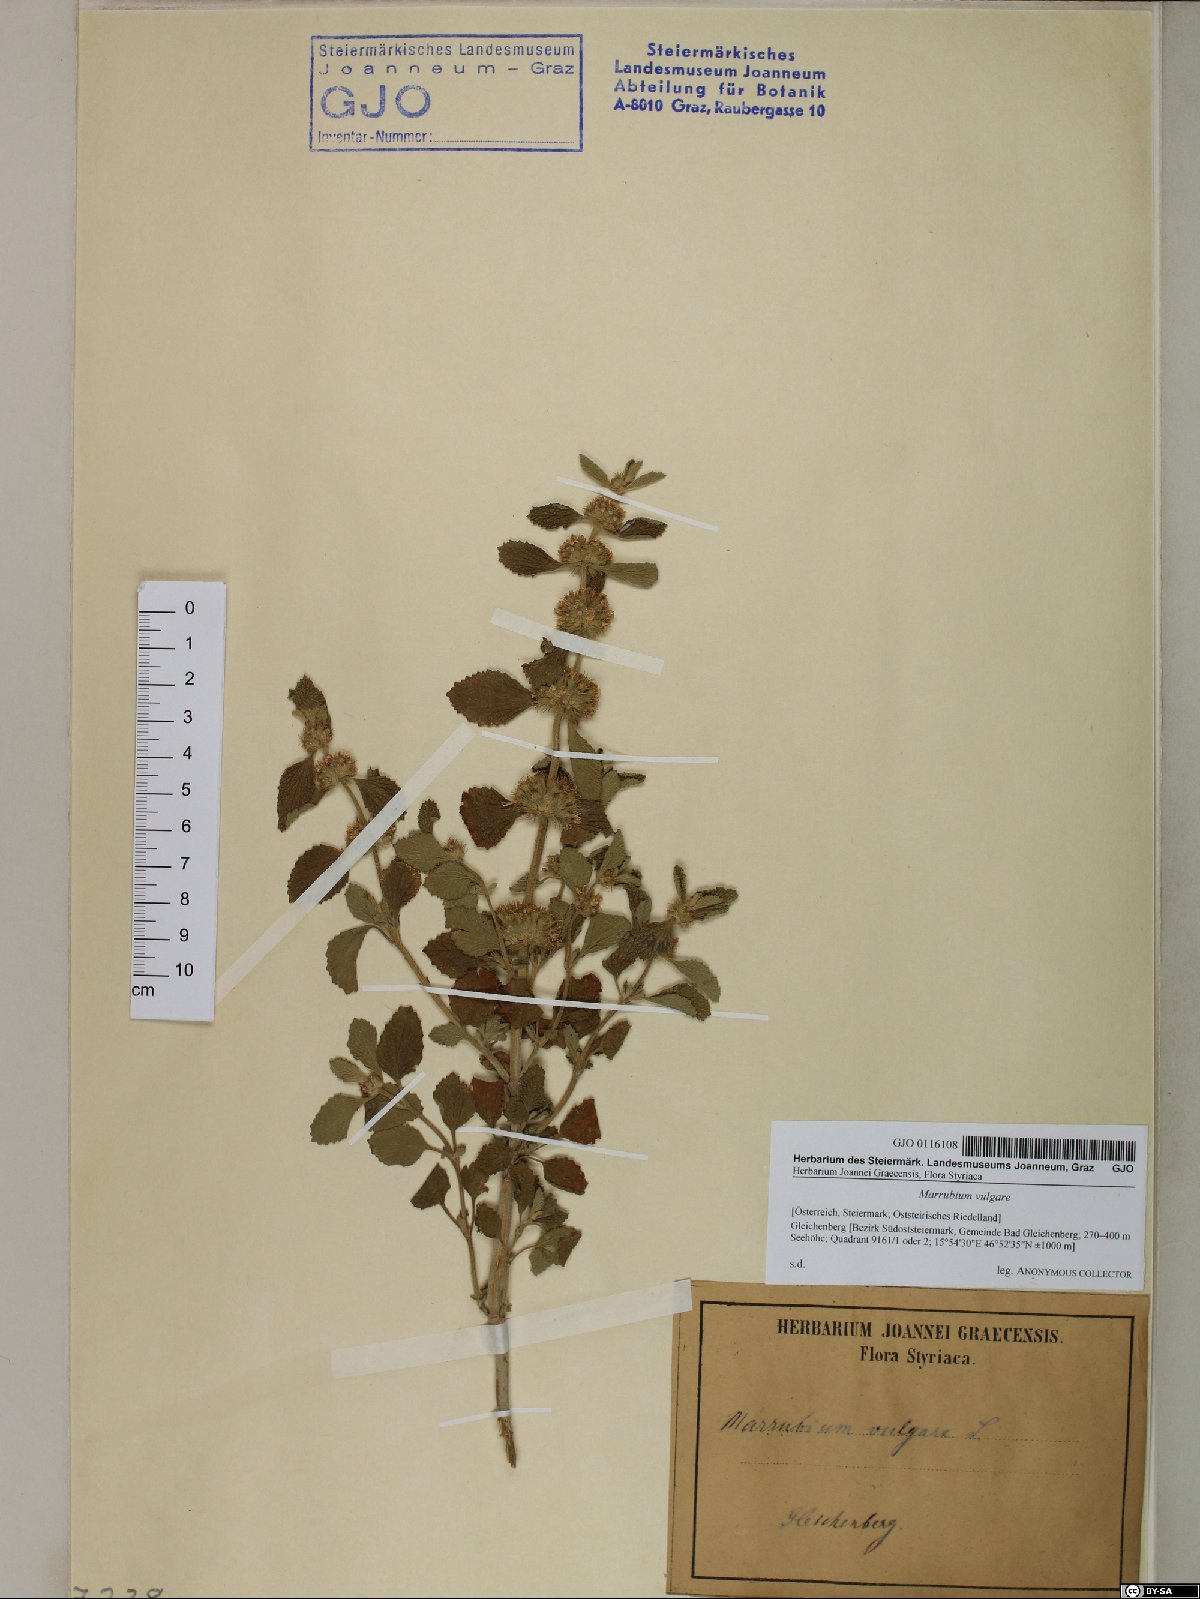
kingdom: Plantae
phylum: Tracheophyta
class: Magnoliopsida
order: Lamiales
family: Lamiaceae
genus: Marrubium
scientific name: Marrubium vulgare
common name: Horehound
